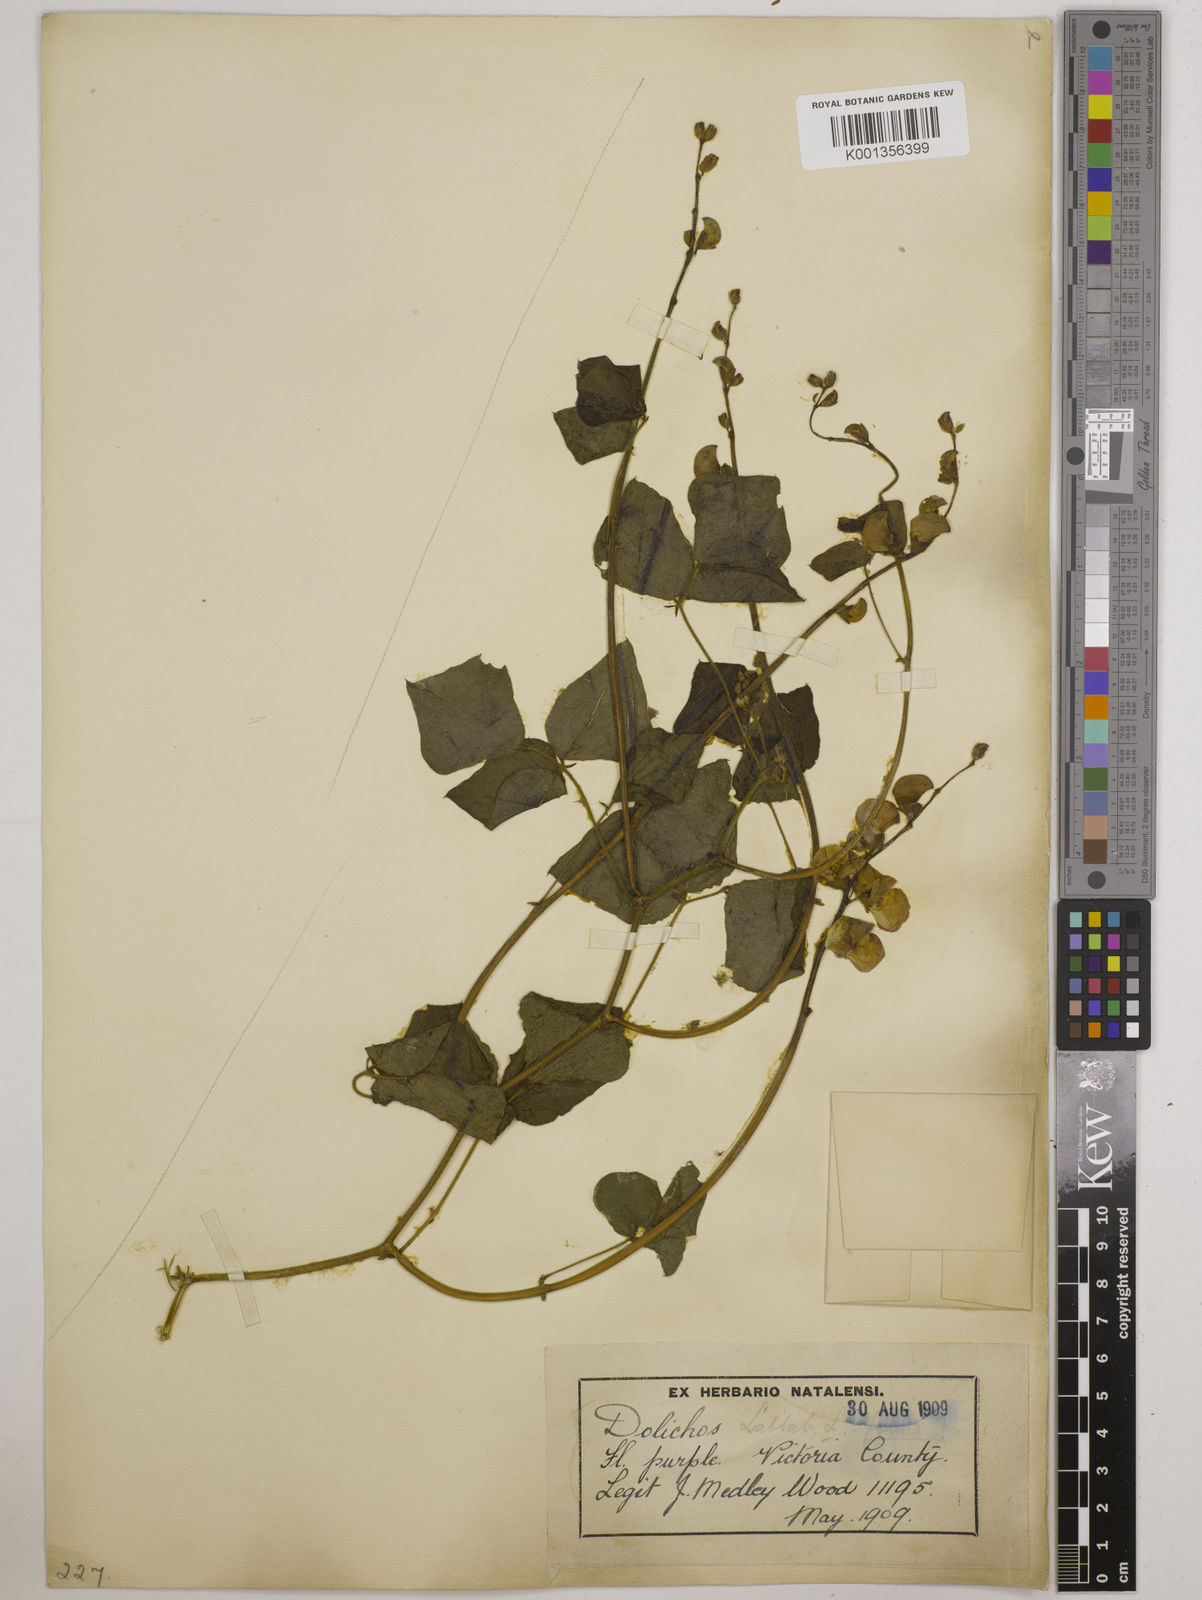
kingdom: Plantae
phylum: Tracheophyta
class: Magnoliopsida
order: Fabales
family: Fabaceae
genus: Lablab
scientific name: Lablab purpureus
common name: Lablab-bean
